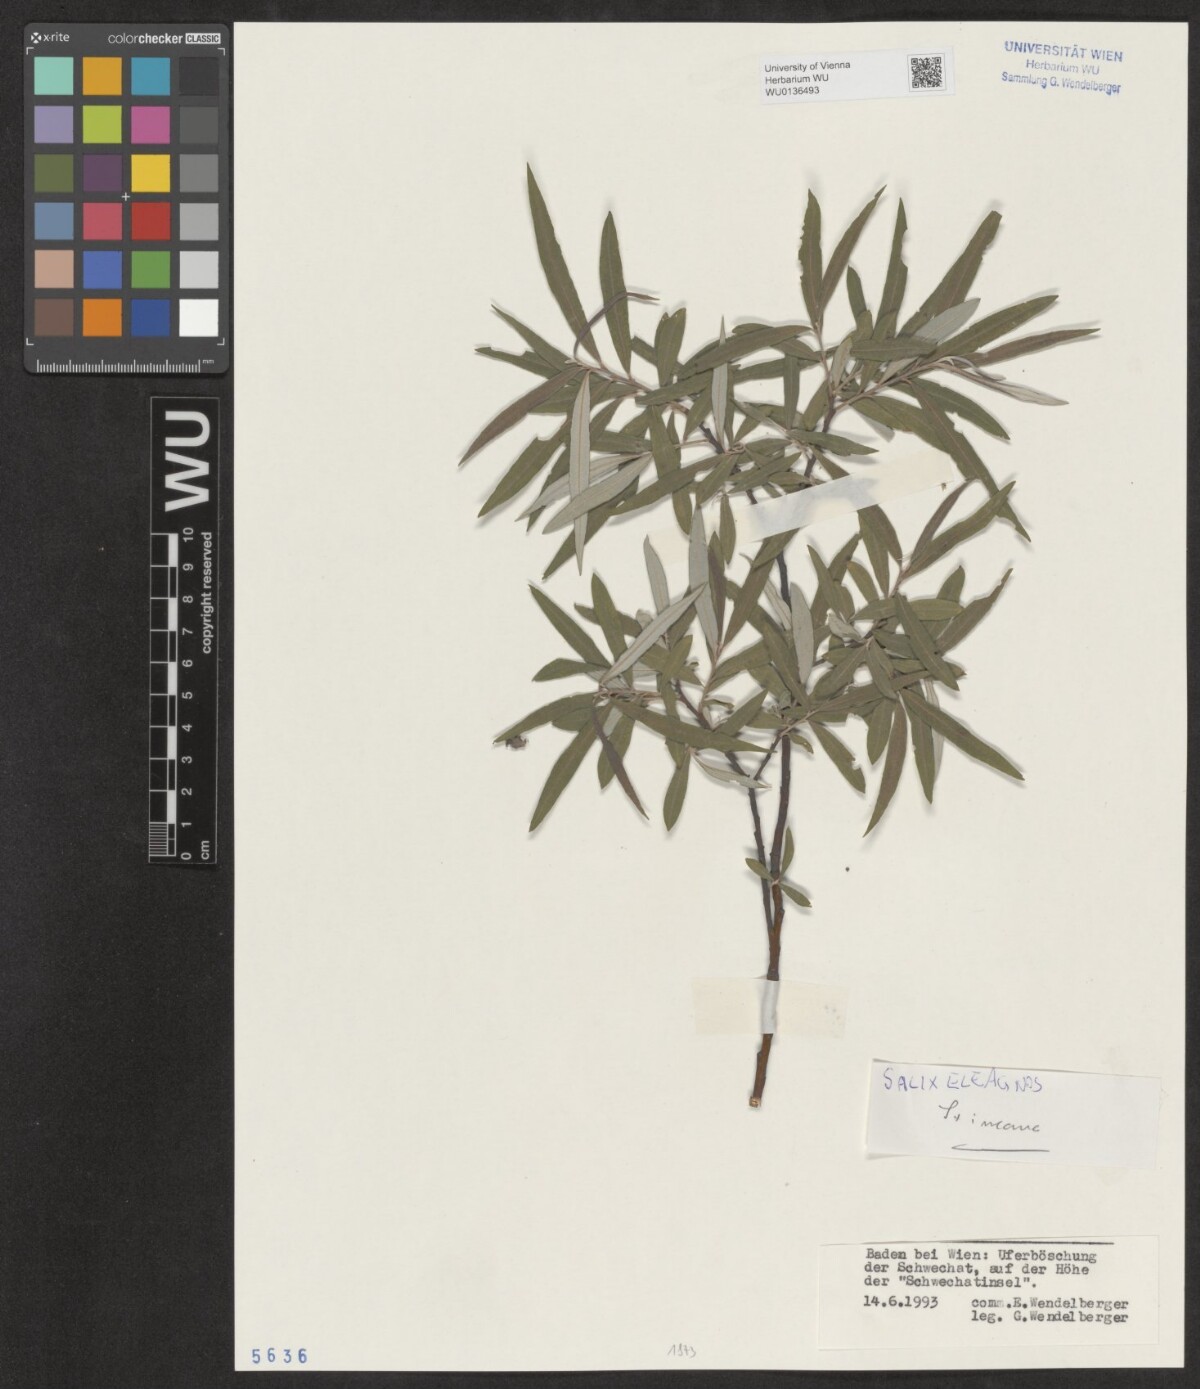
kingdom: Plantae
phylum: Tracheophyta
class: Magnoliopsida
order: Malpighiales
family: Salicaceae
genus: Salix
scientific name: Salix eleagnos
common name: Elaeagnus willow
